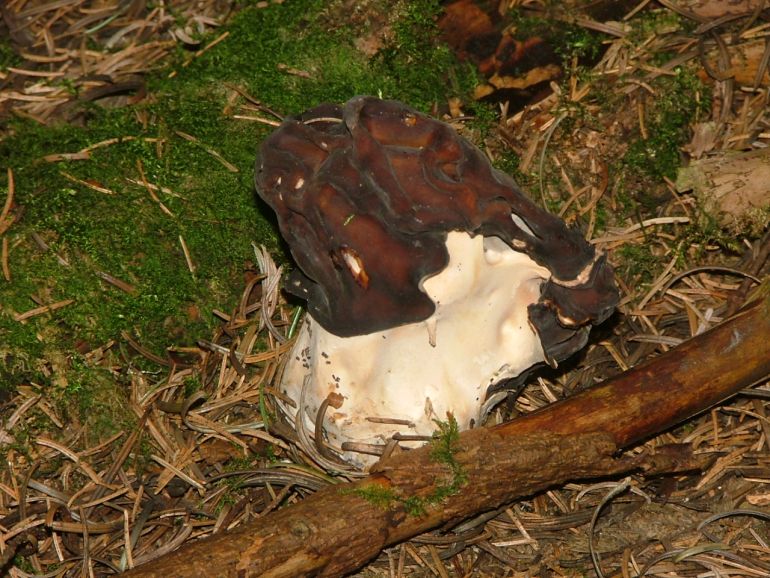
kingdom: Fungi
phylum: Ascomycota
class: Pezizomycetes
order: Pezizales
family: Discinaceae
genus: Gyromitra
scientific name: Gyromitra esculenta
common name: ægte stenmorkel
